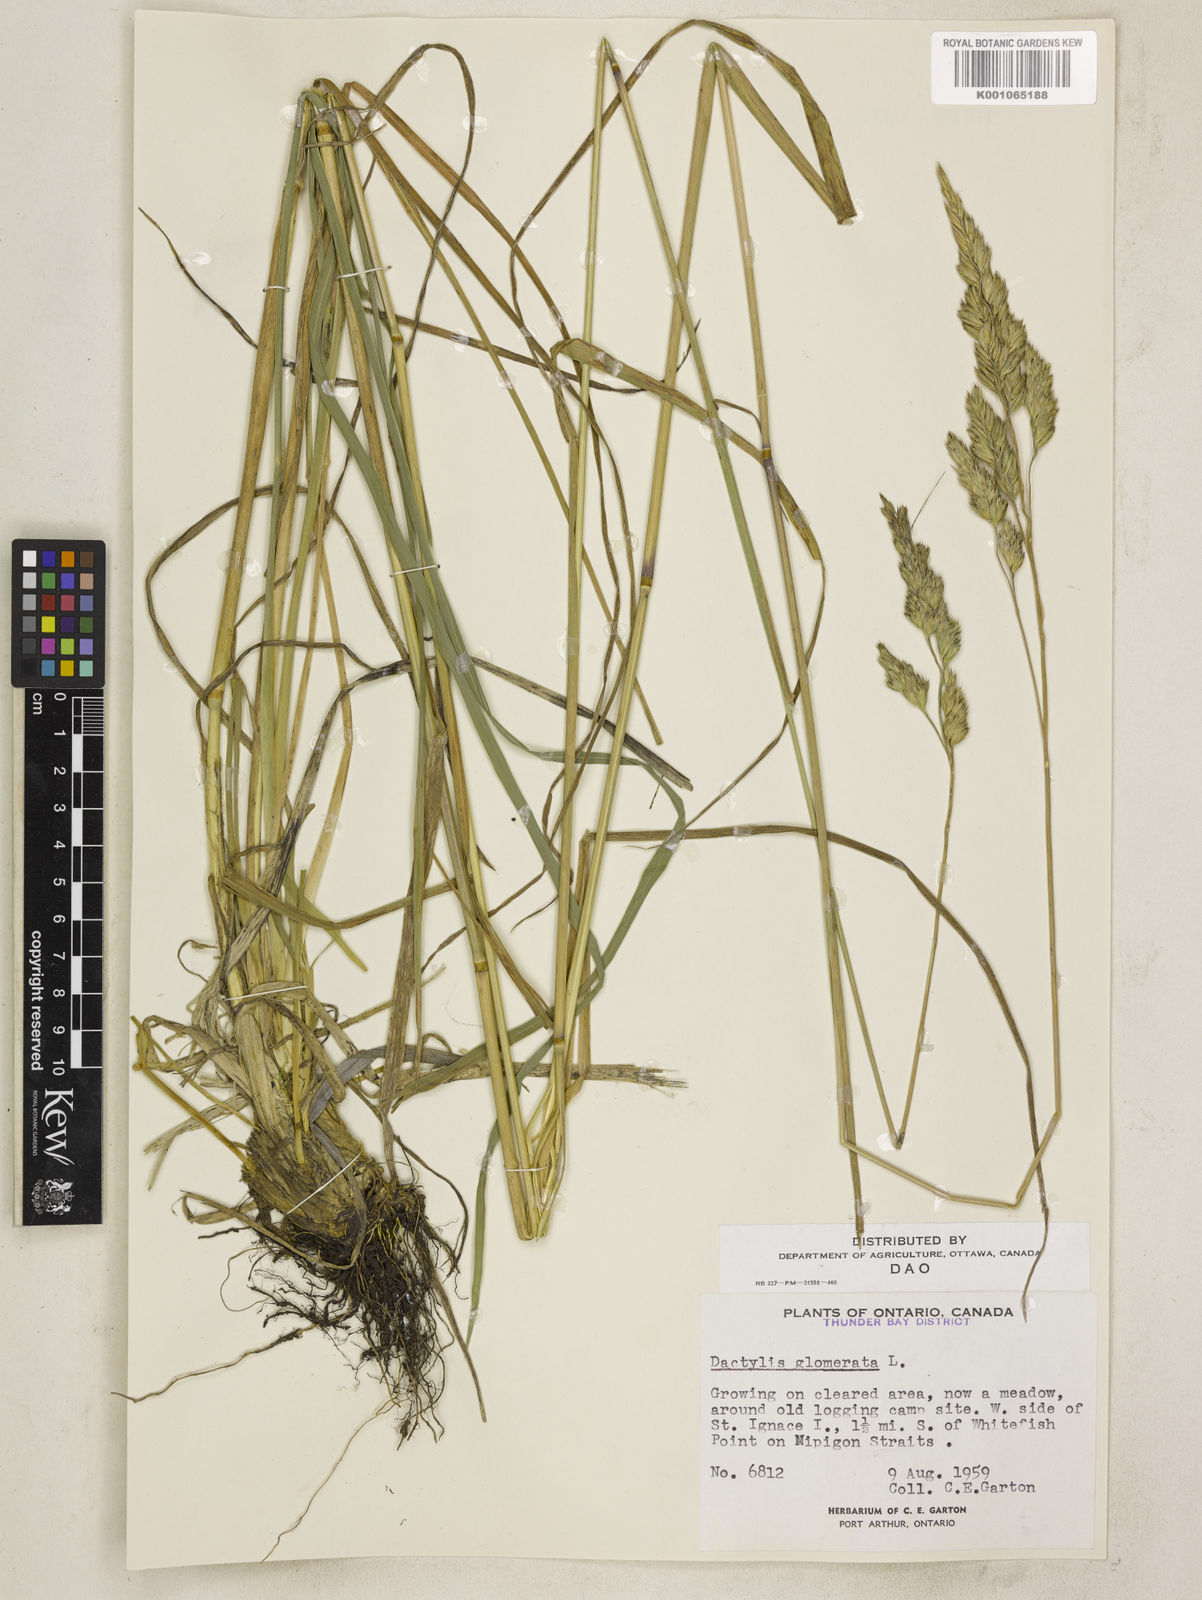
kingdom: Plantae
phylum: Tracheophyta
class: Liliopsida
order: Poales
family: Poaceae
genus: Dactylis
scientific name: Dactylis glomerata
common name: Orchardgrass
